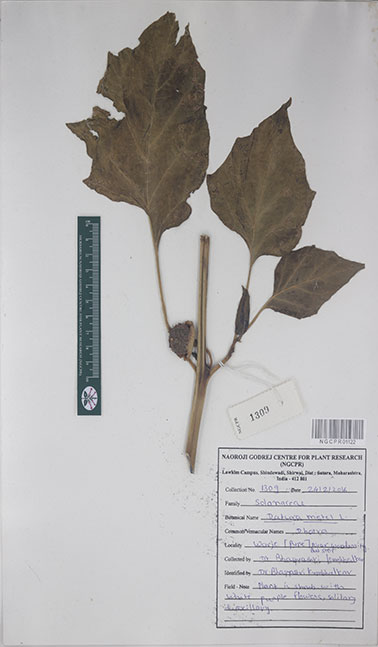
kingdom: Plantae
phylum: Tracheophyta
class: Magnoliopsida
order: Solanales
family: Solanaceae
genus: Datura
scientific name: Datura metel
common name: Jimsonweed
